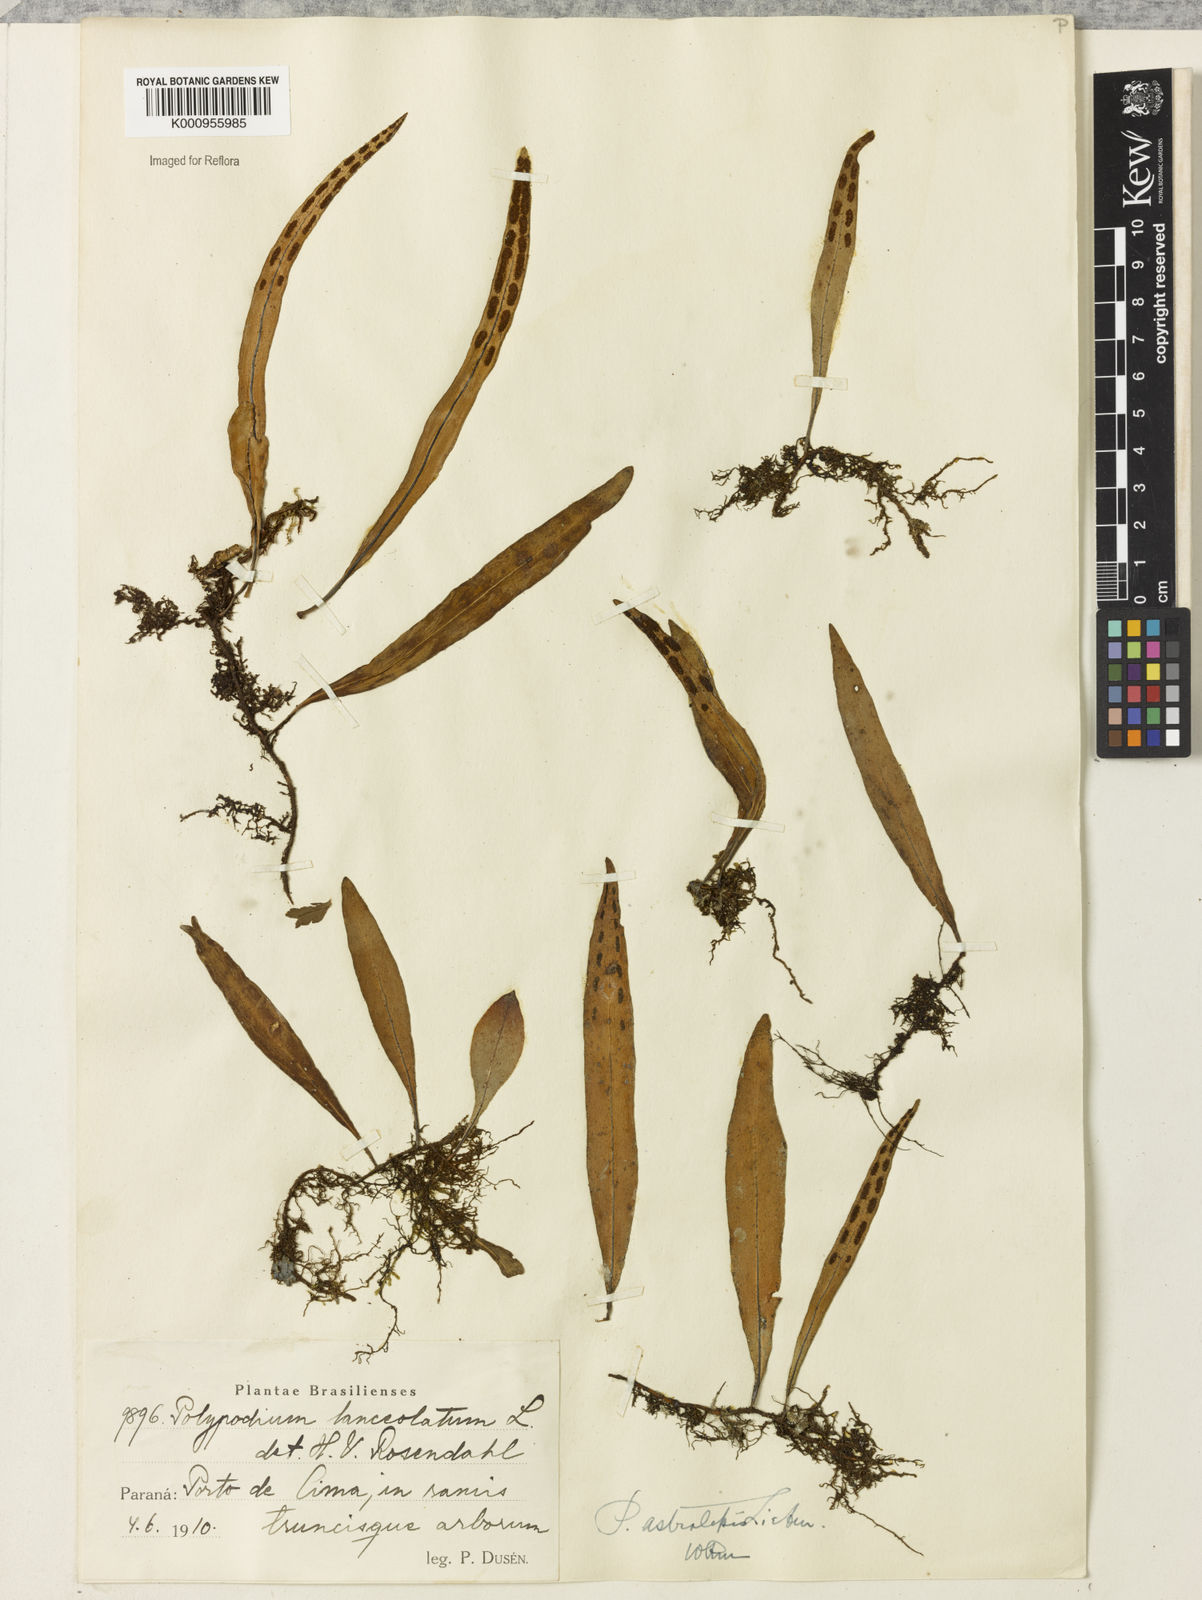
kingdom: Plantae
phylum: Tracheophyta
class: Polypodiopsida
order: Polypodiales
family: Polypodiaceae
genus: Pleopeltis
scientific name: Pleopeltis astrolepis
